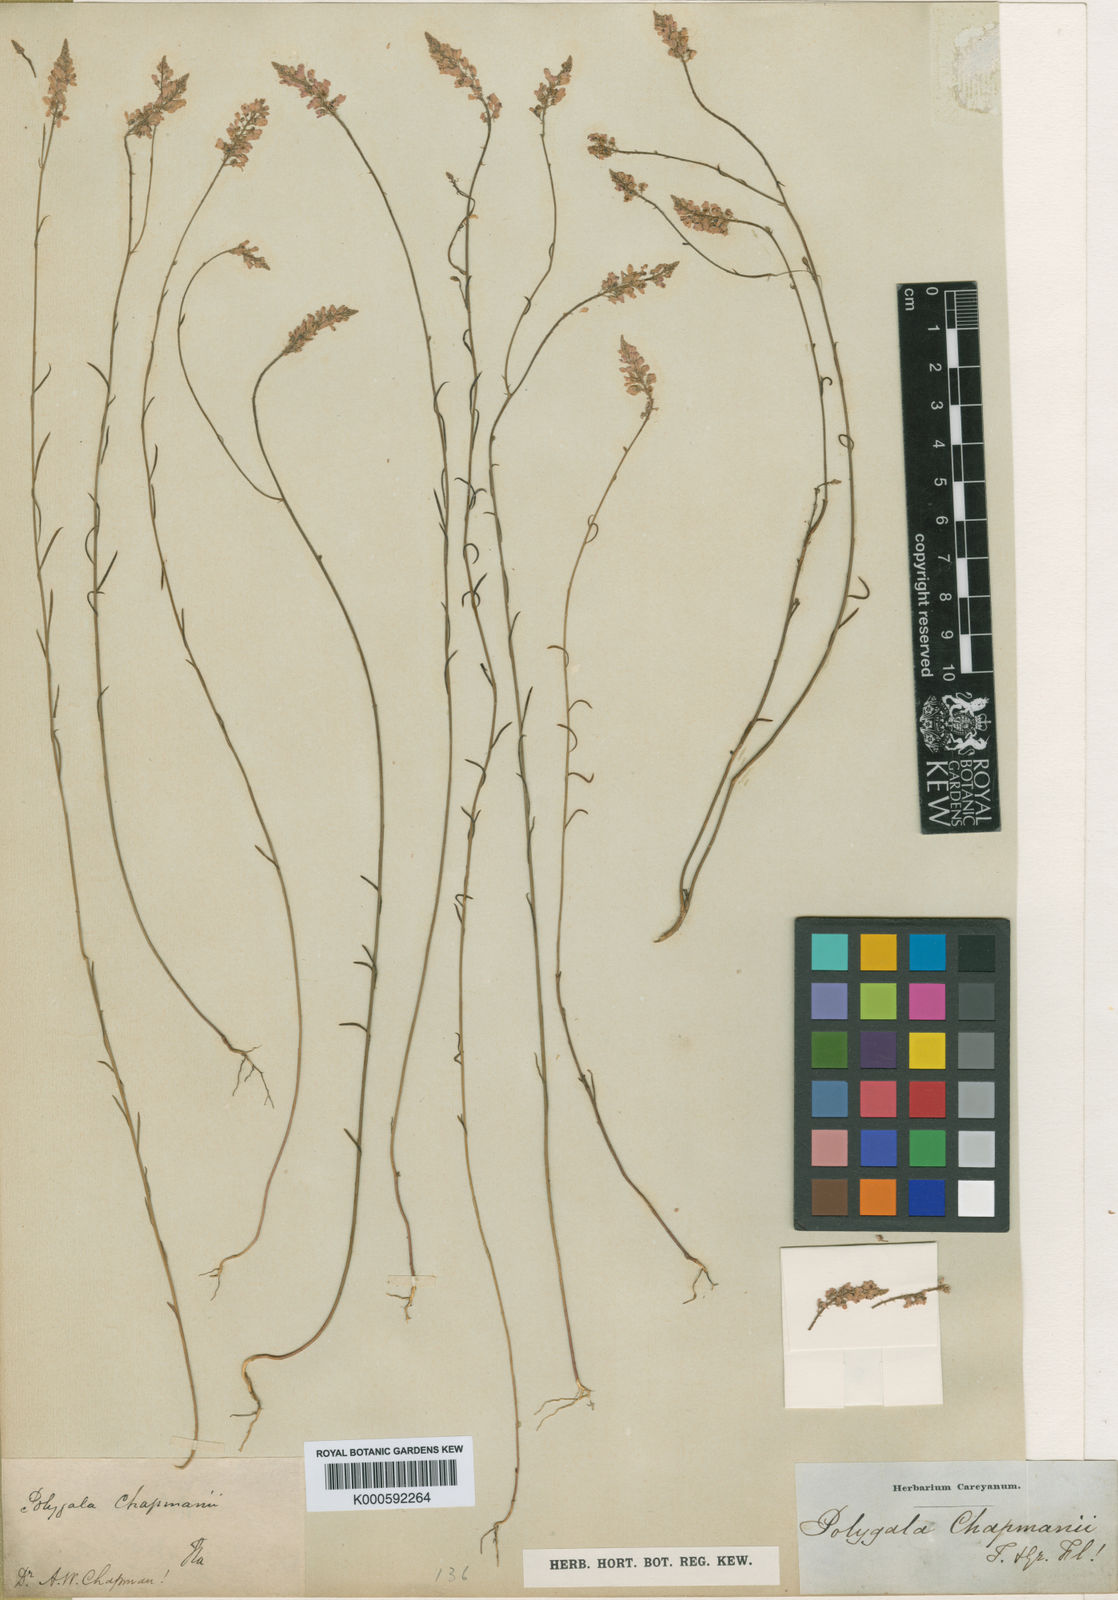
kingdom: Plantae
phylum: Tracheophyta
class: Magnoliopsida
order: Fabales
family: Polygalaceae
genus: Polygala
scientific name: Polygala chapmanii
